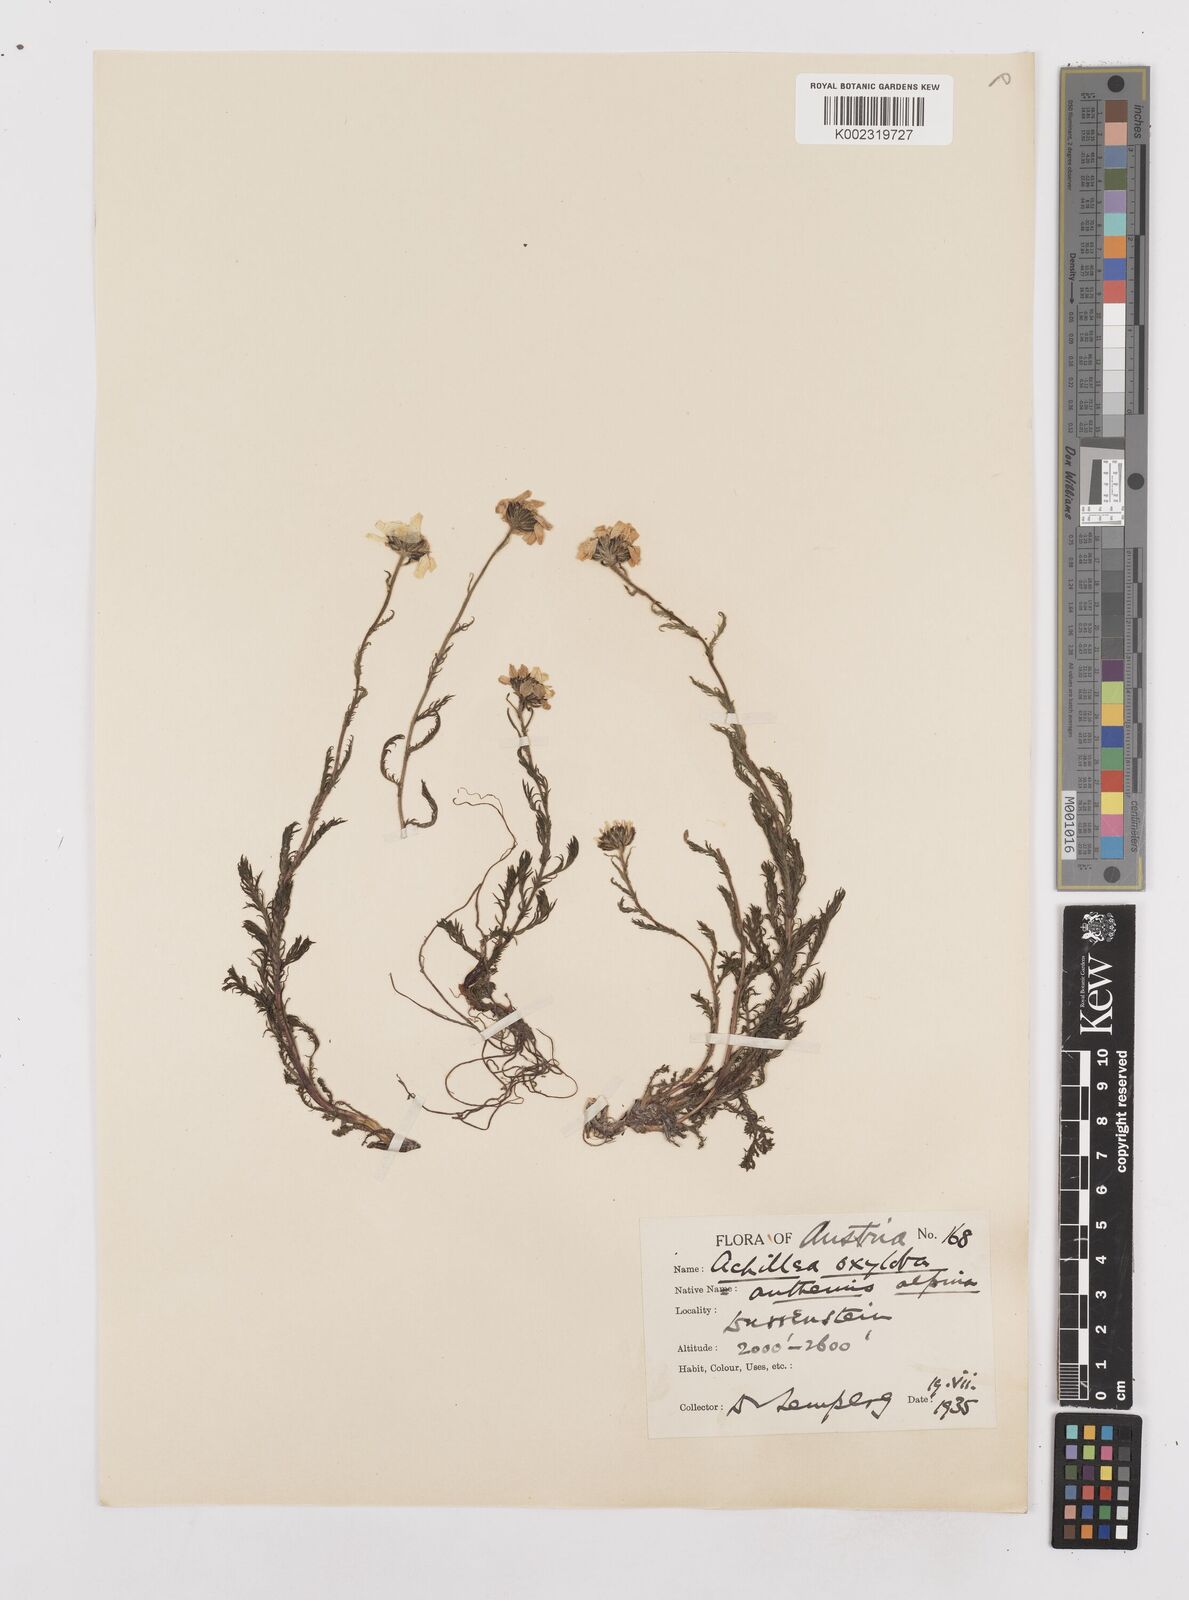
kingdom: Plantae
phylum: Tracheophyta
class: Magnoliopsida
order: Asterales
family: Asteraceae
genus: Achillea
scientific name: Achillea oxyloba
